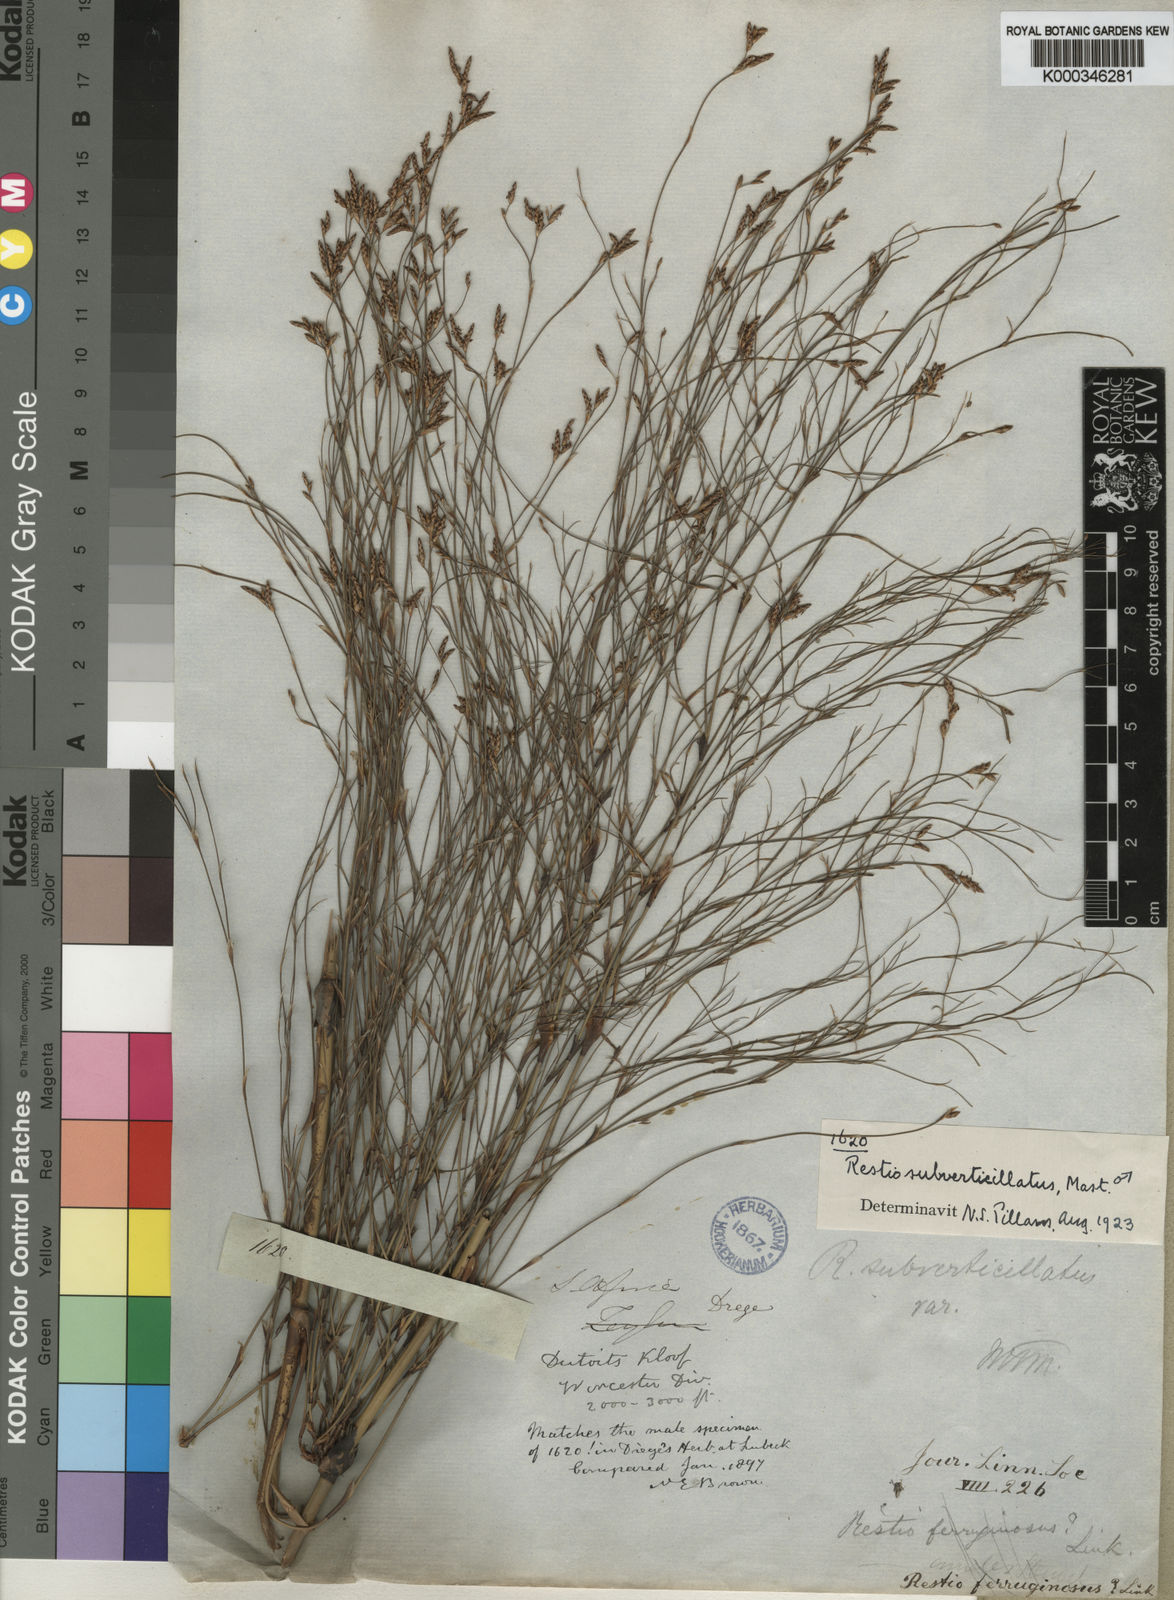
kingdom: Plantae
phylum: Tracheophyta
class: Liliopsida
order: Poales
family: Restionaceae
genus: Restio
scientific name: Restio subverticillatus
